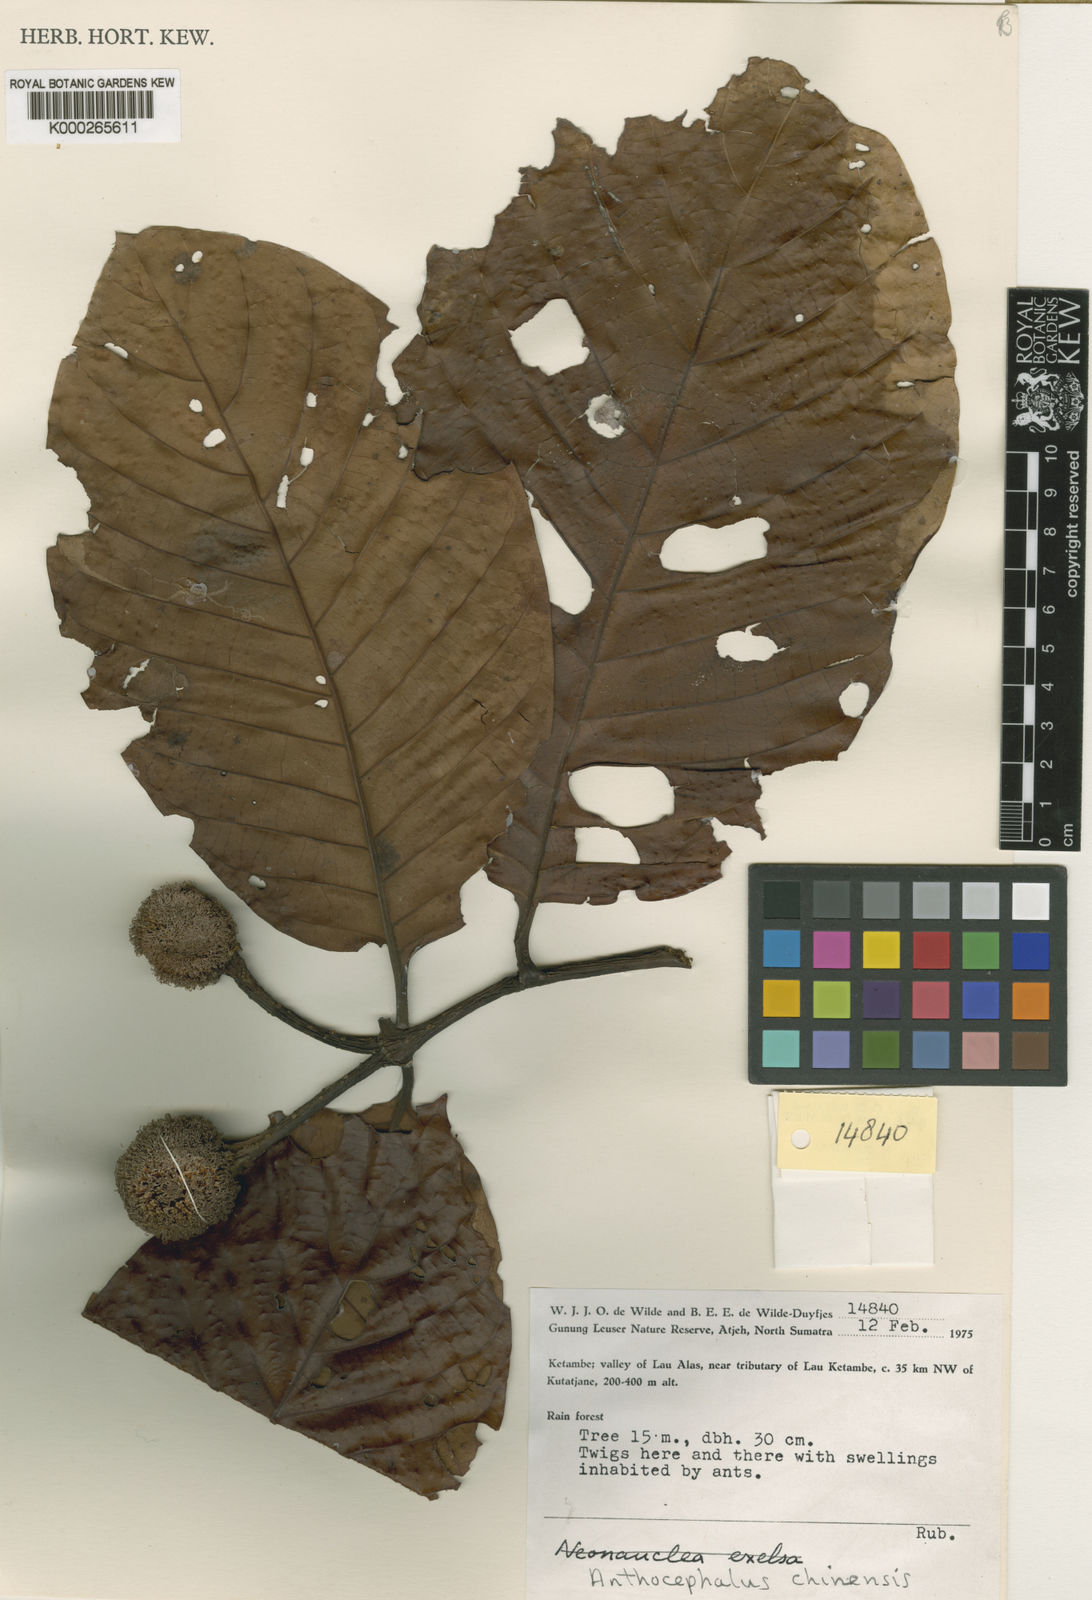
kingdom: Plantae
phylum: Tracheophyta
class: Magnoliopsida
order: Gentianales
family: Rubiaceae
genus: Neolamarckia
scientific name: Neolamarckia cadamba
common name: Leichhardt-pine
